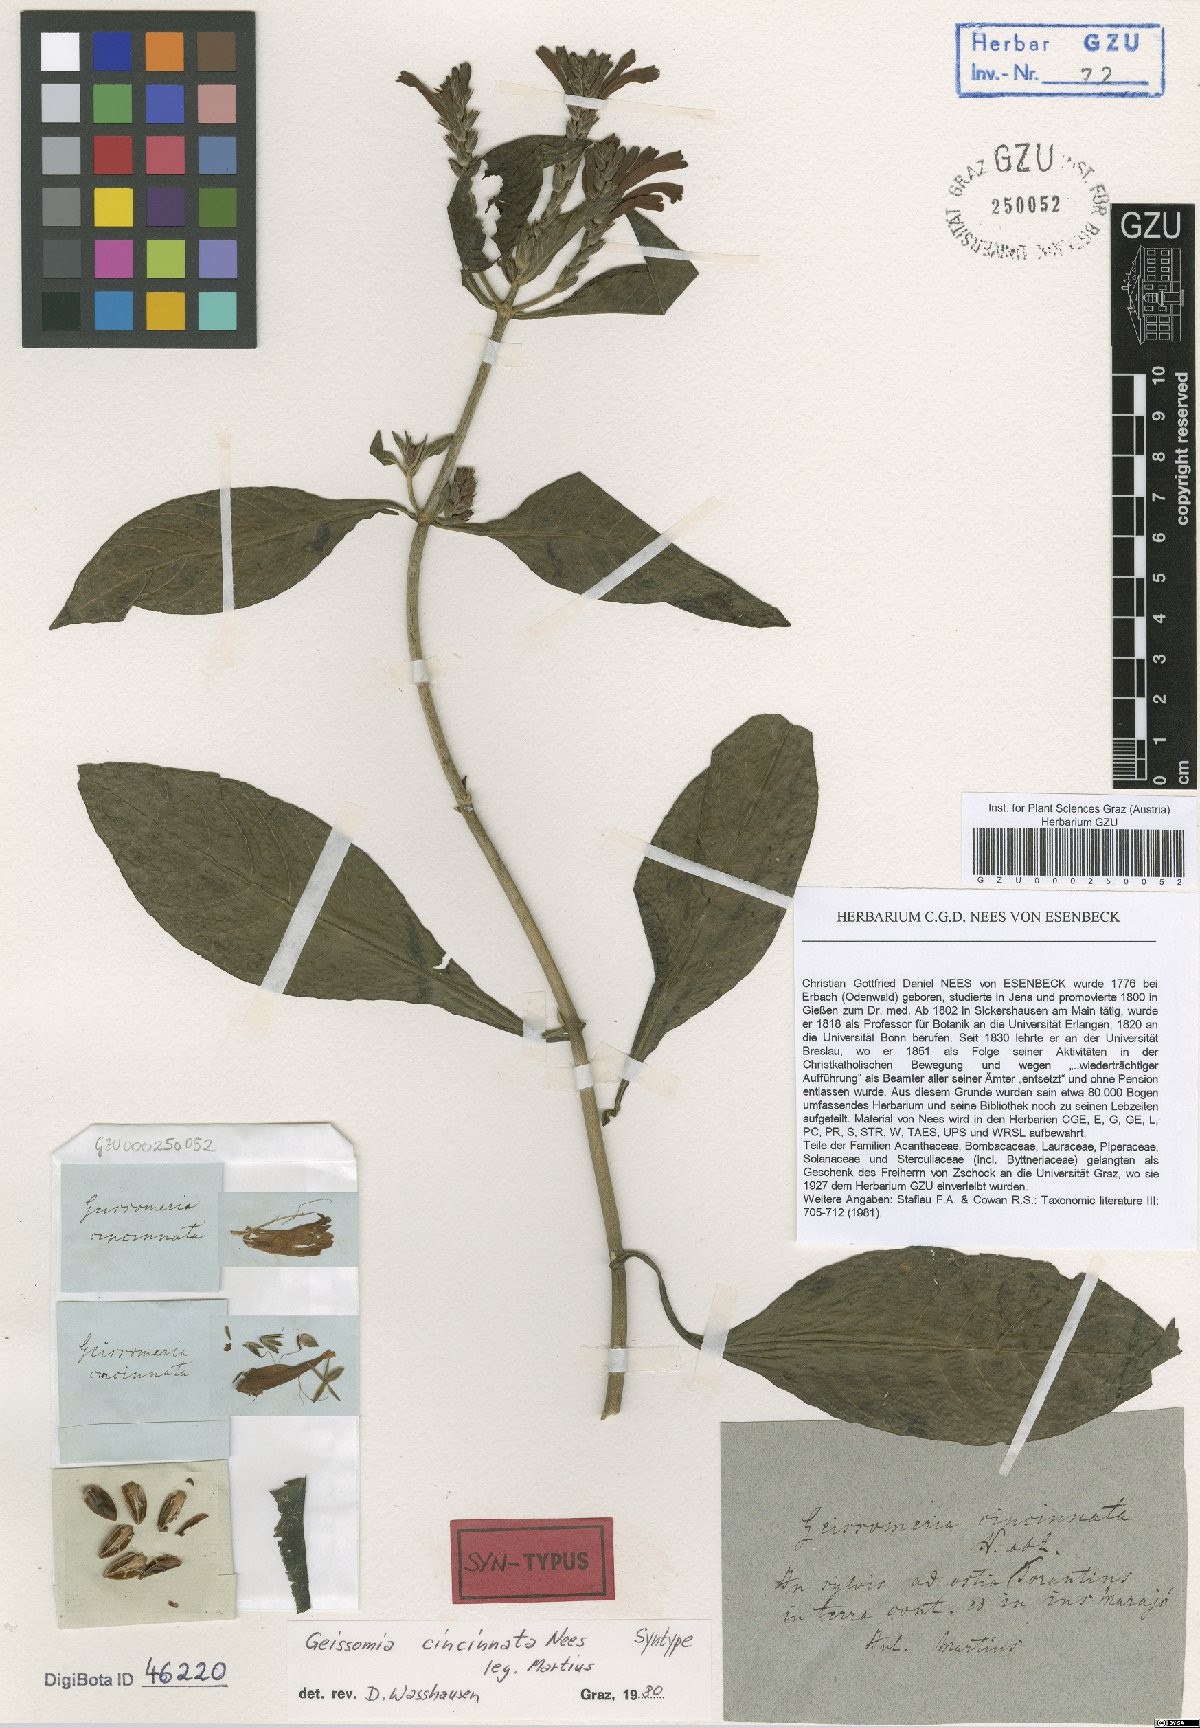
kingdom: Plantae
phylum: Tracheophyta
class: Magnoliopsida
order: Lamiales
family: Acanthaceae
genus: Aphelandra
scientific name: Aphelandra longiflora
